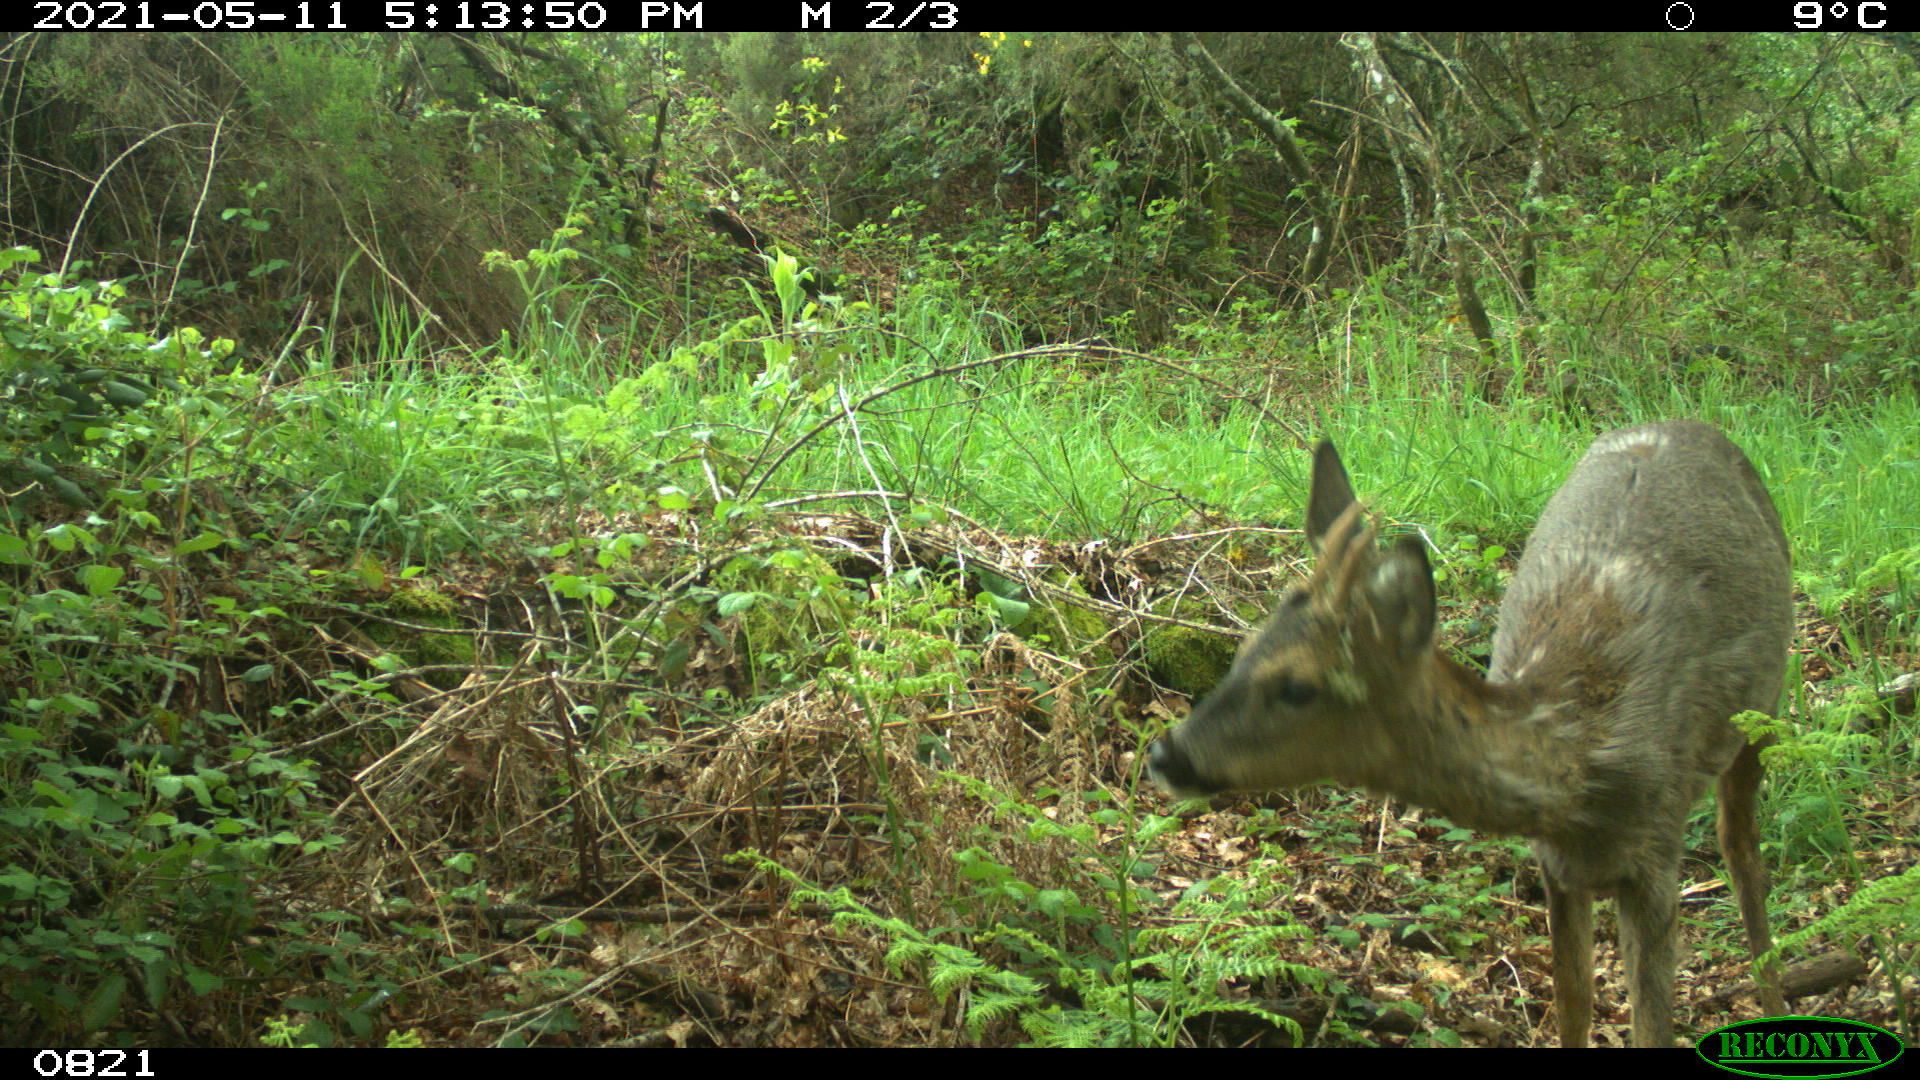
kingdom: Animalia
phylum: Chordata
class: Mammalia
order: Artiodactyla
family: Cervidae
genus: Capreolus
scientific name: Capreolus capreolus
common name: Western roe deer
